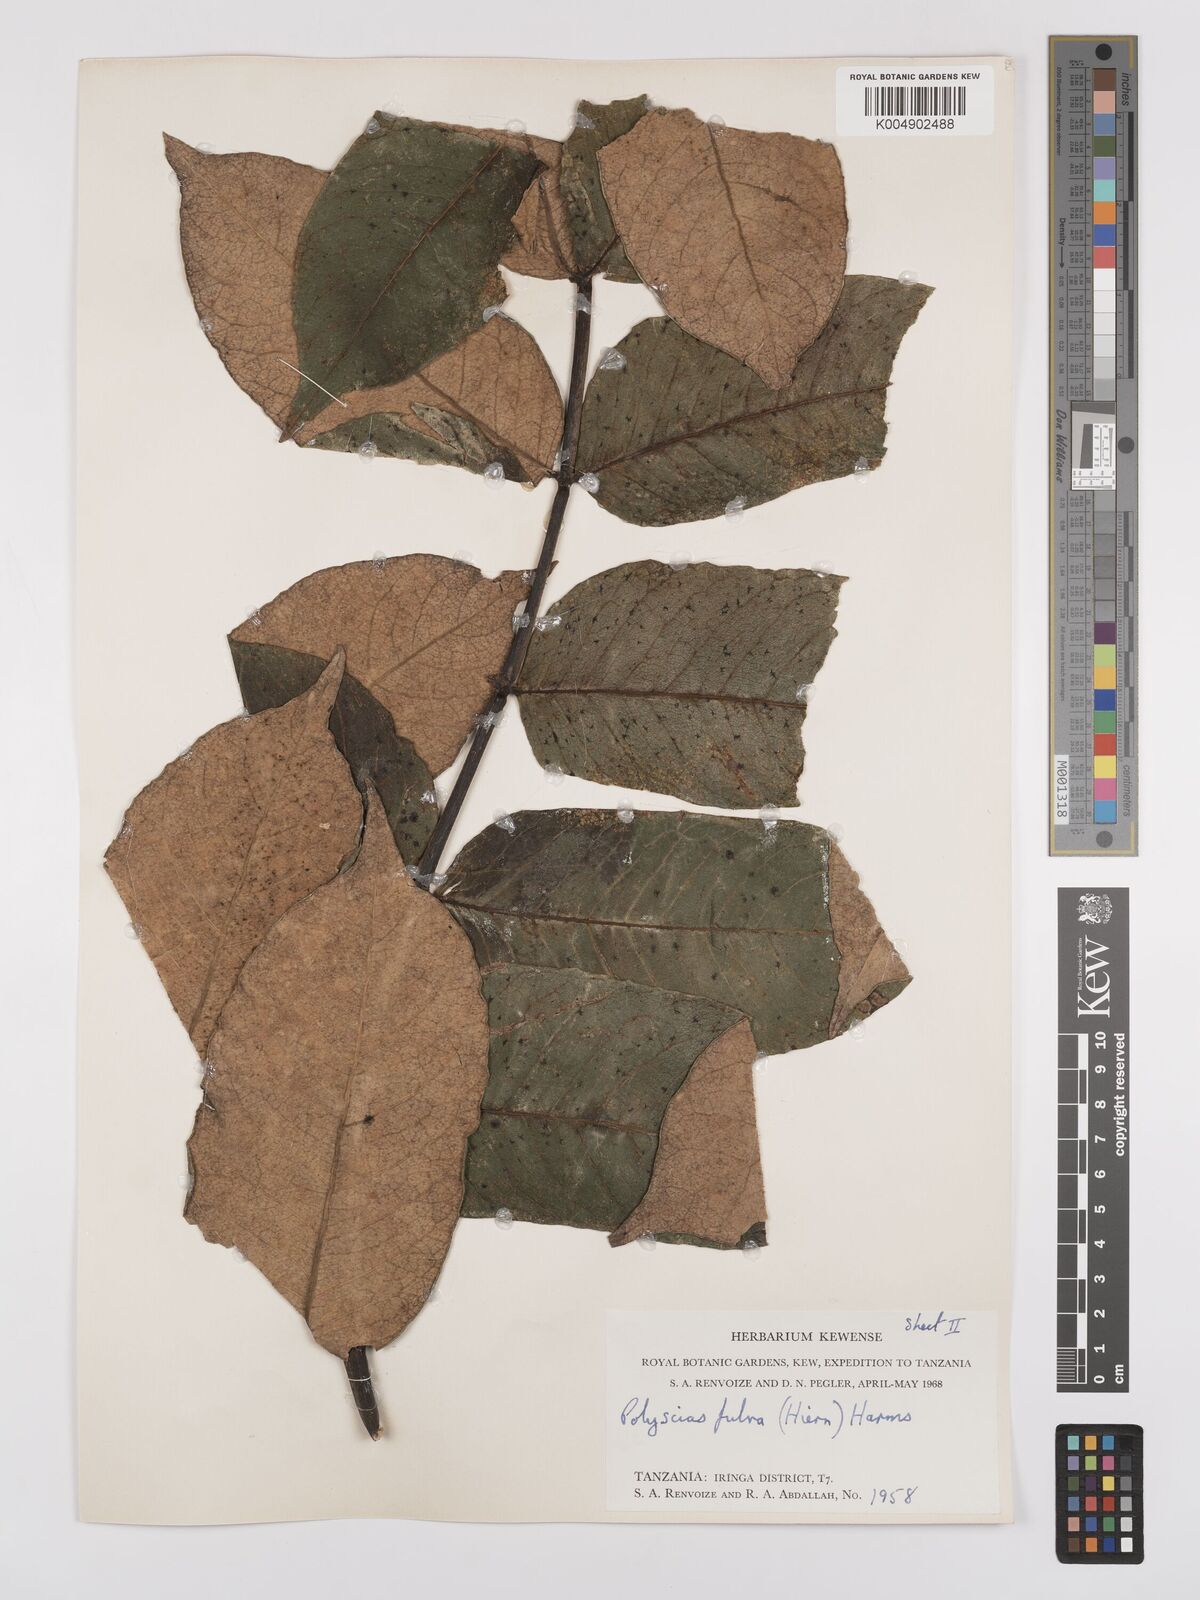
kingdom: Plantae
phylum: Tracheophyta
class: Magnoliopsida
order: Apiales
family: Araliaceae
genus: Polyscias
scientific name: Polyscias fulva
